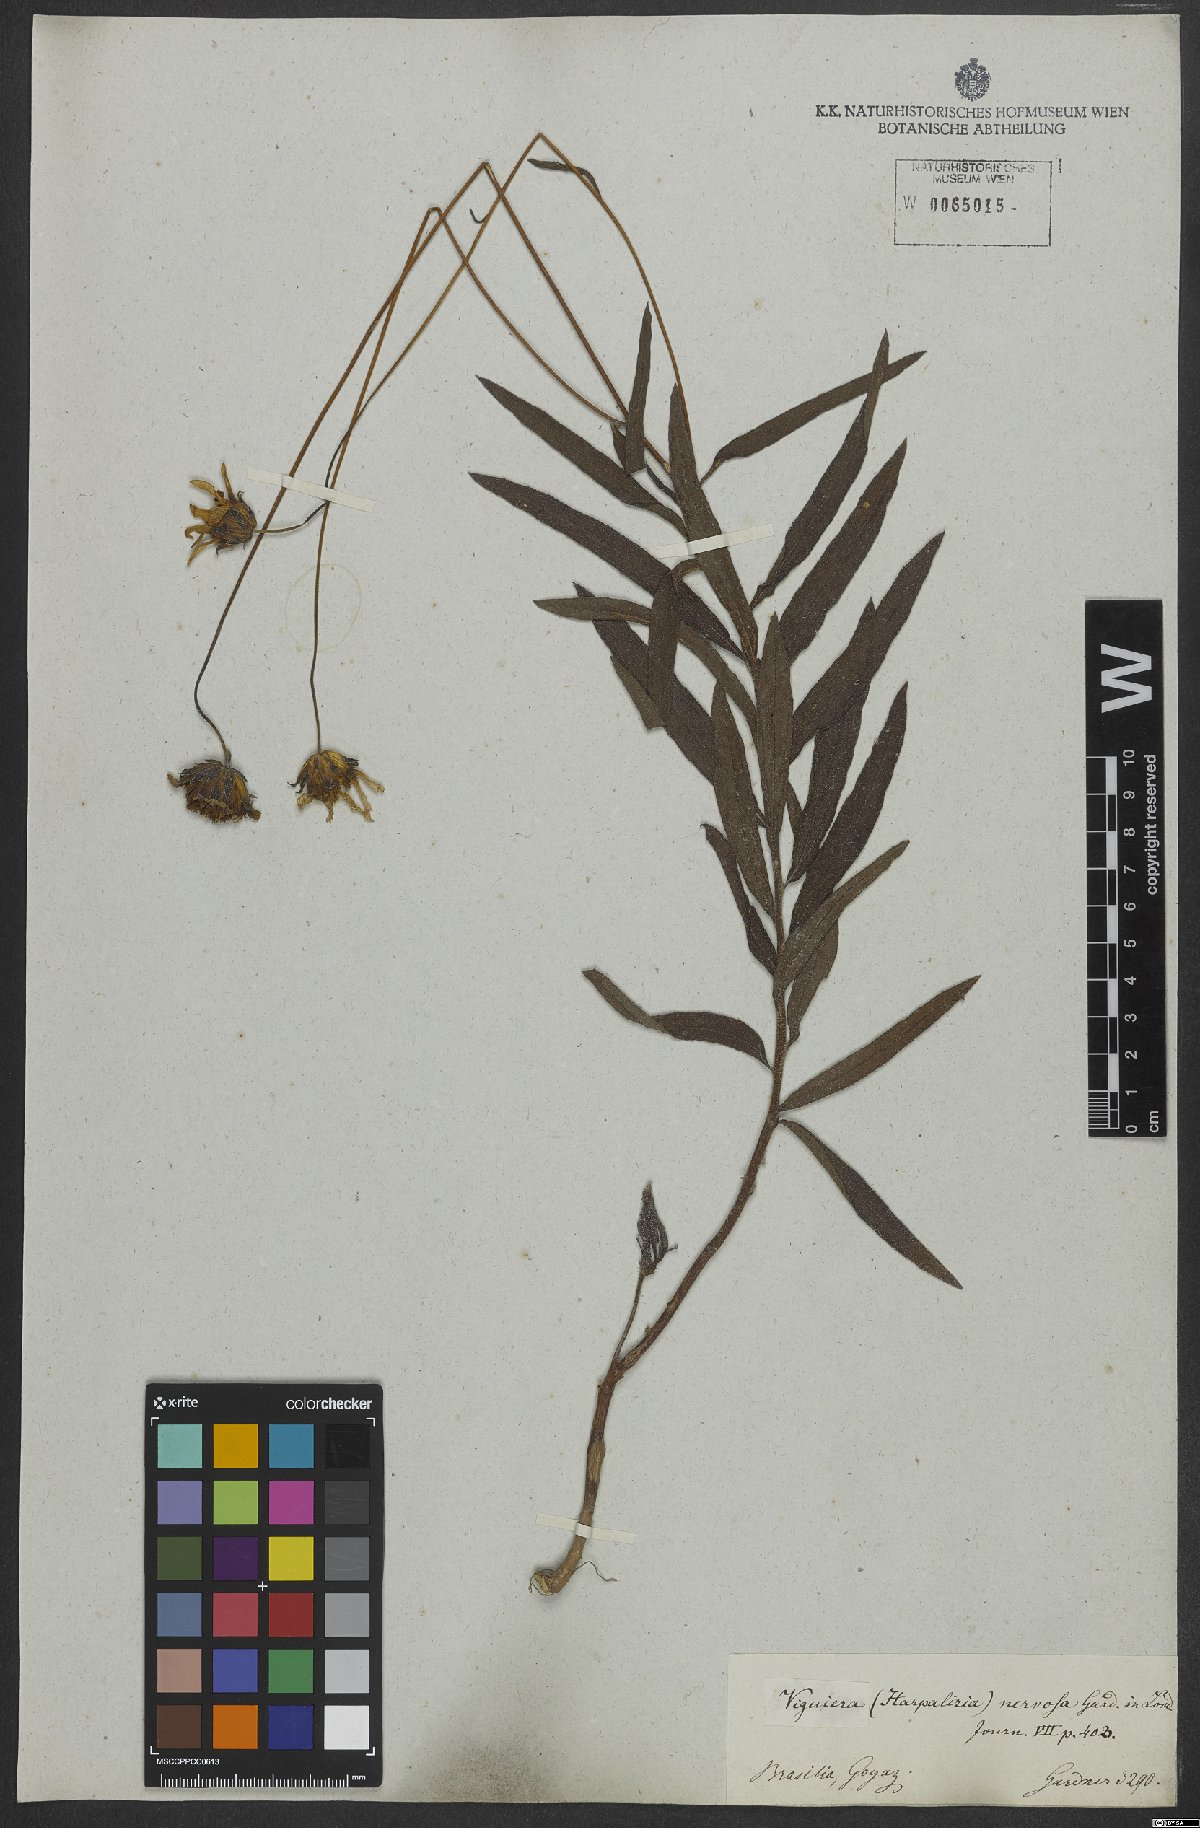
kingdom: Plantae
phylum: Tracheophyta
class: Magnoliopsida
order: Asterales
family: Asteraceae
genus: Aldama
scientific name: Aldama nervosa
